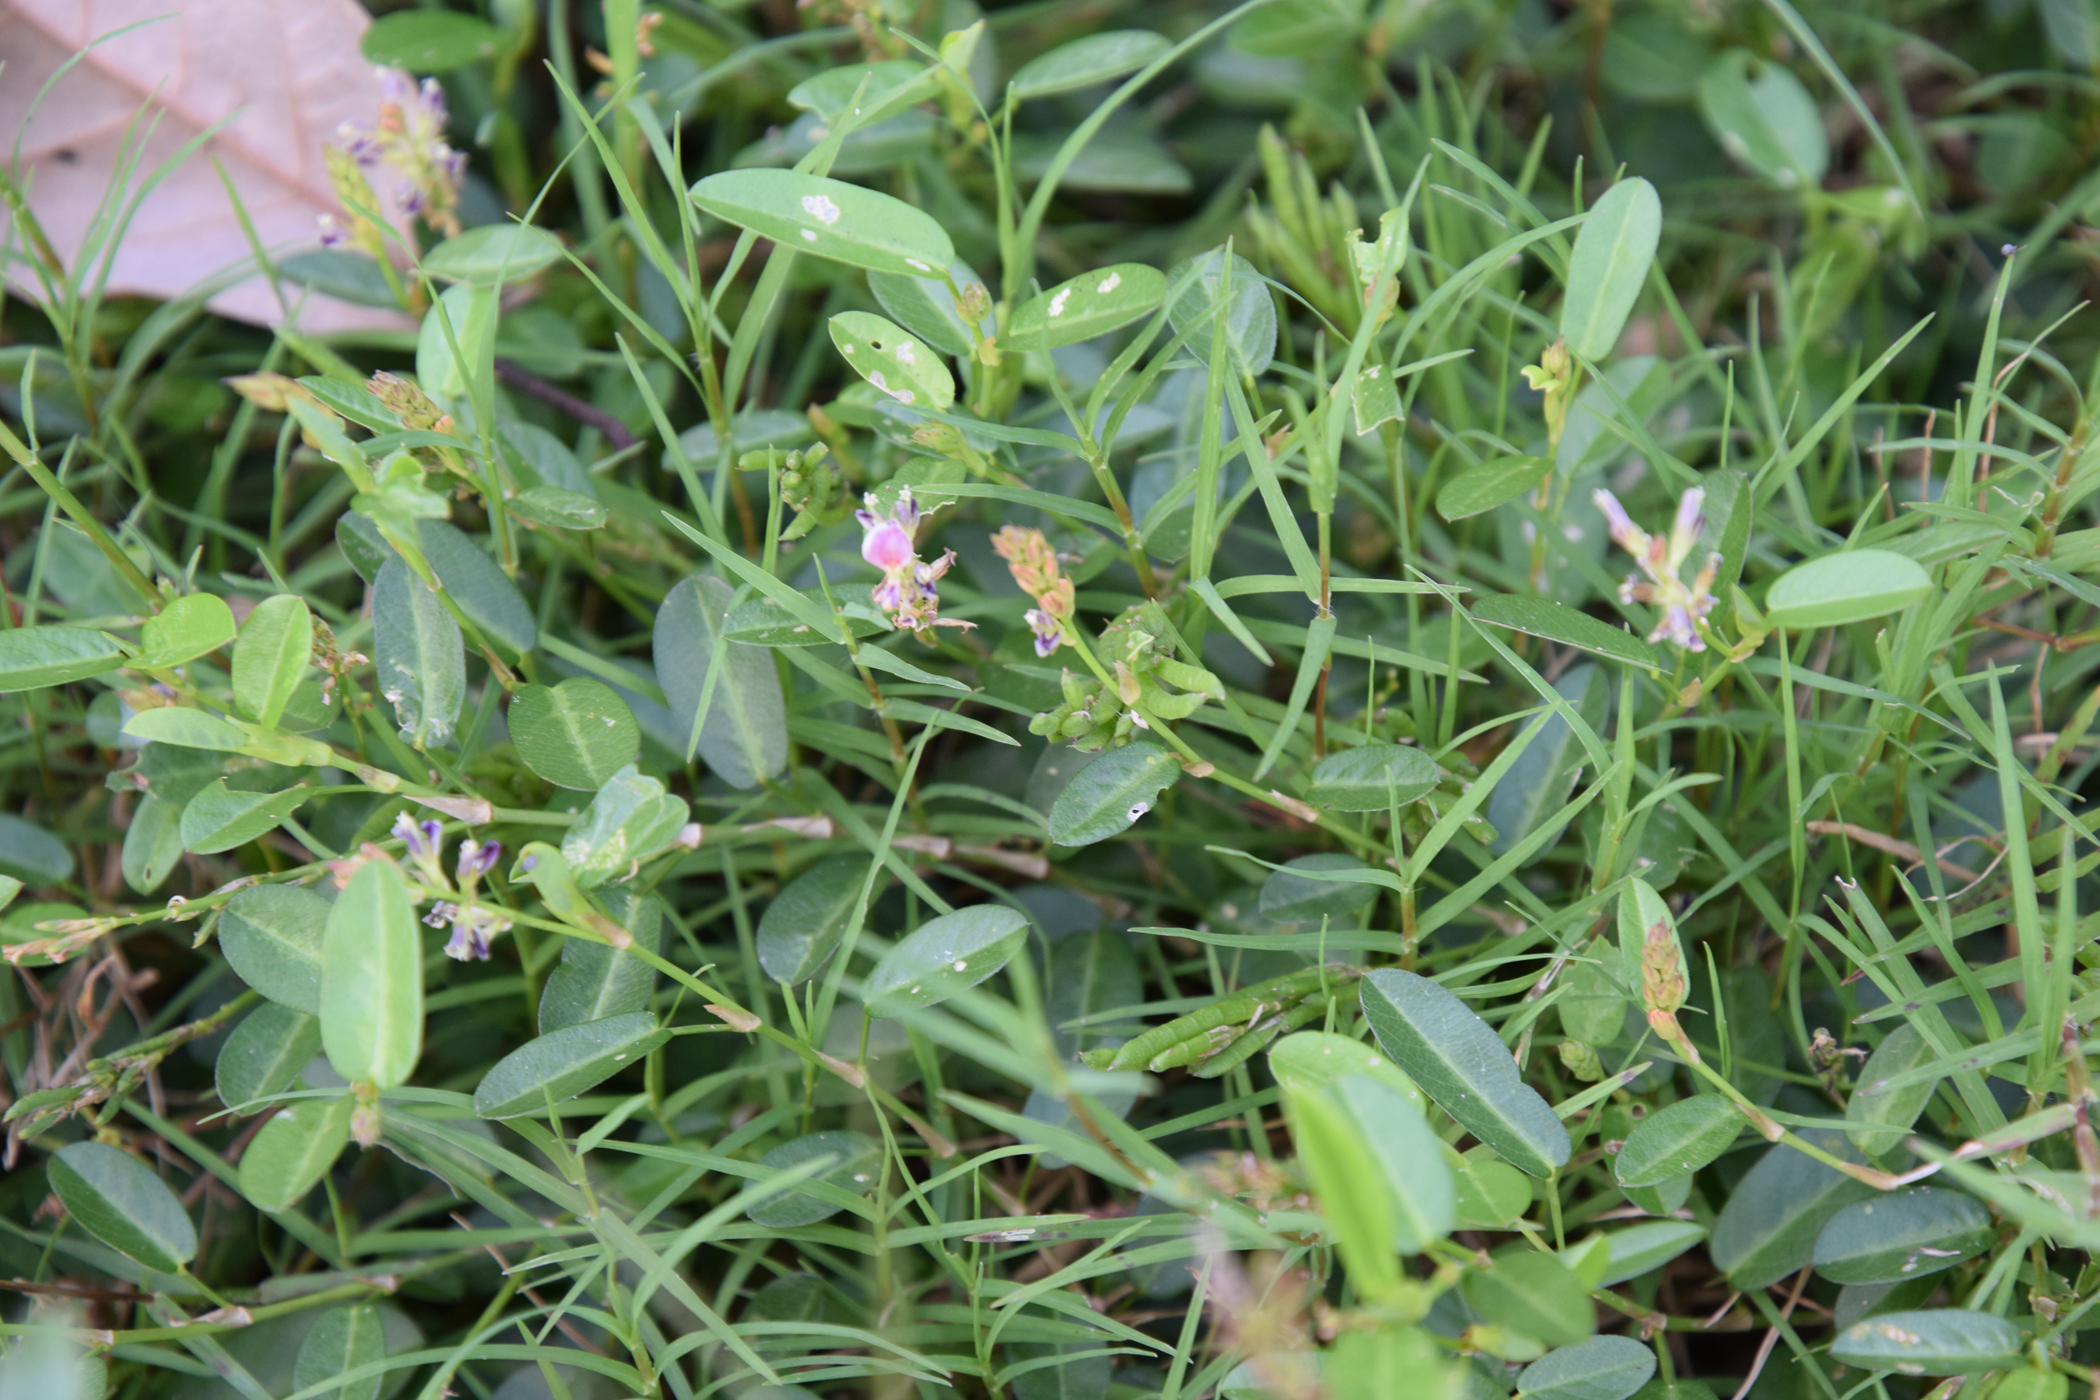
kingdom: Plantae
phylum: Tracheophyta
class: Magnoliopsida
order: Fabales
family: Fabaceae
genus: Alysicarpus
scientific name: Alysicarpus vaginalis
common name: White moneywort
